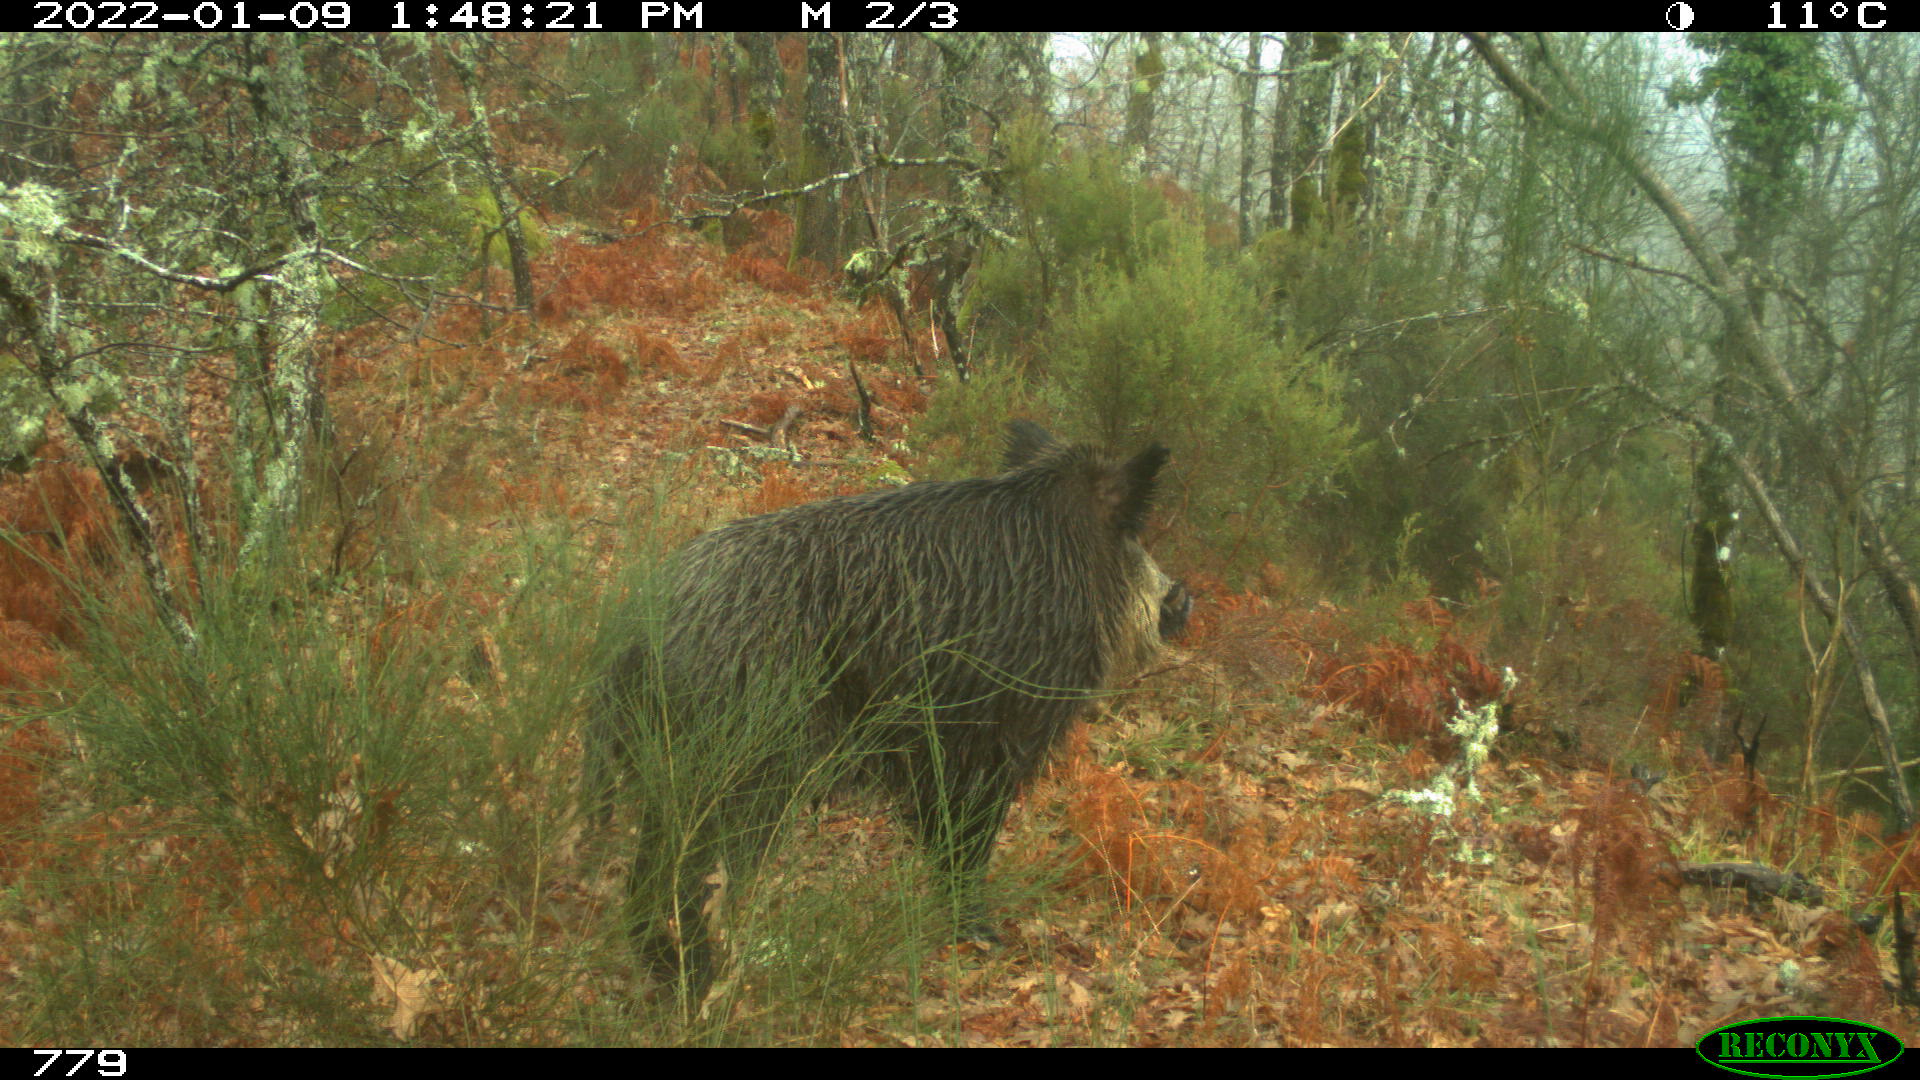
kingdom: Animalia
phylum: Chordata
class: Mammalia
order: Artiodactyla
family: Suidae
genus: Sus
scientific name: Sus scrofa
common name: Wild boar
